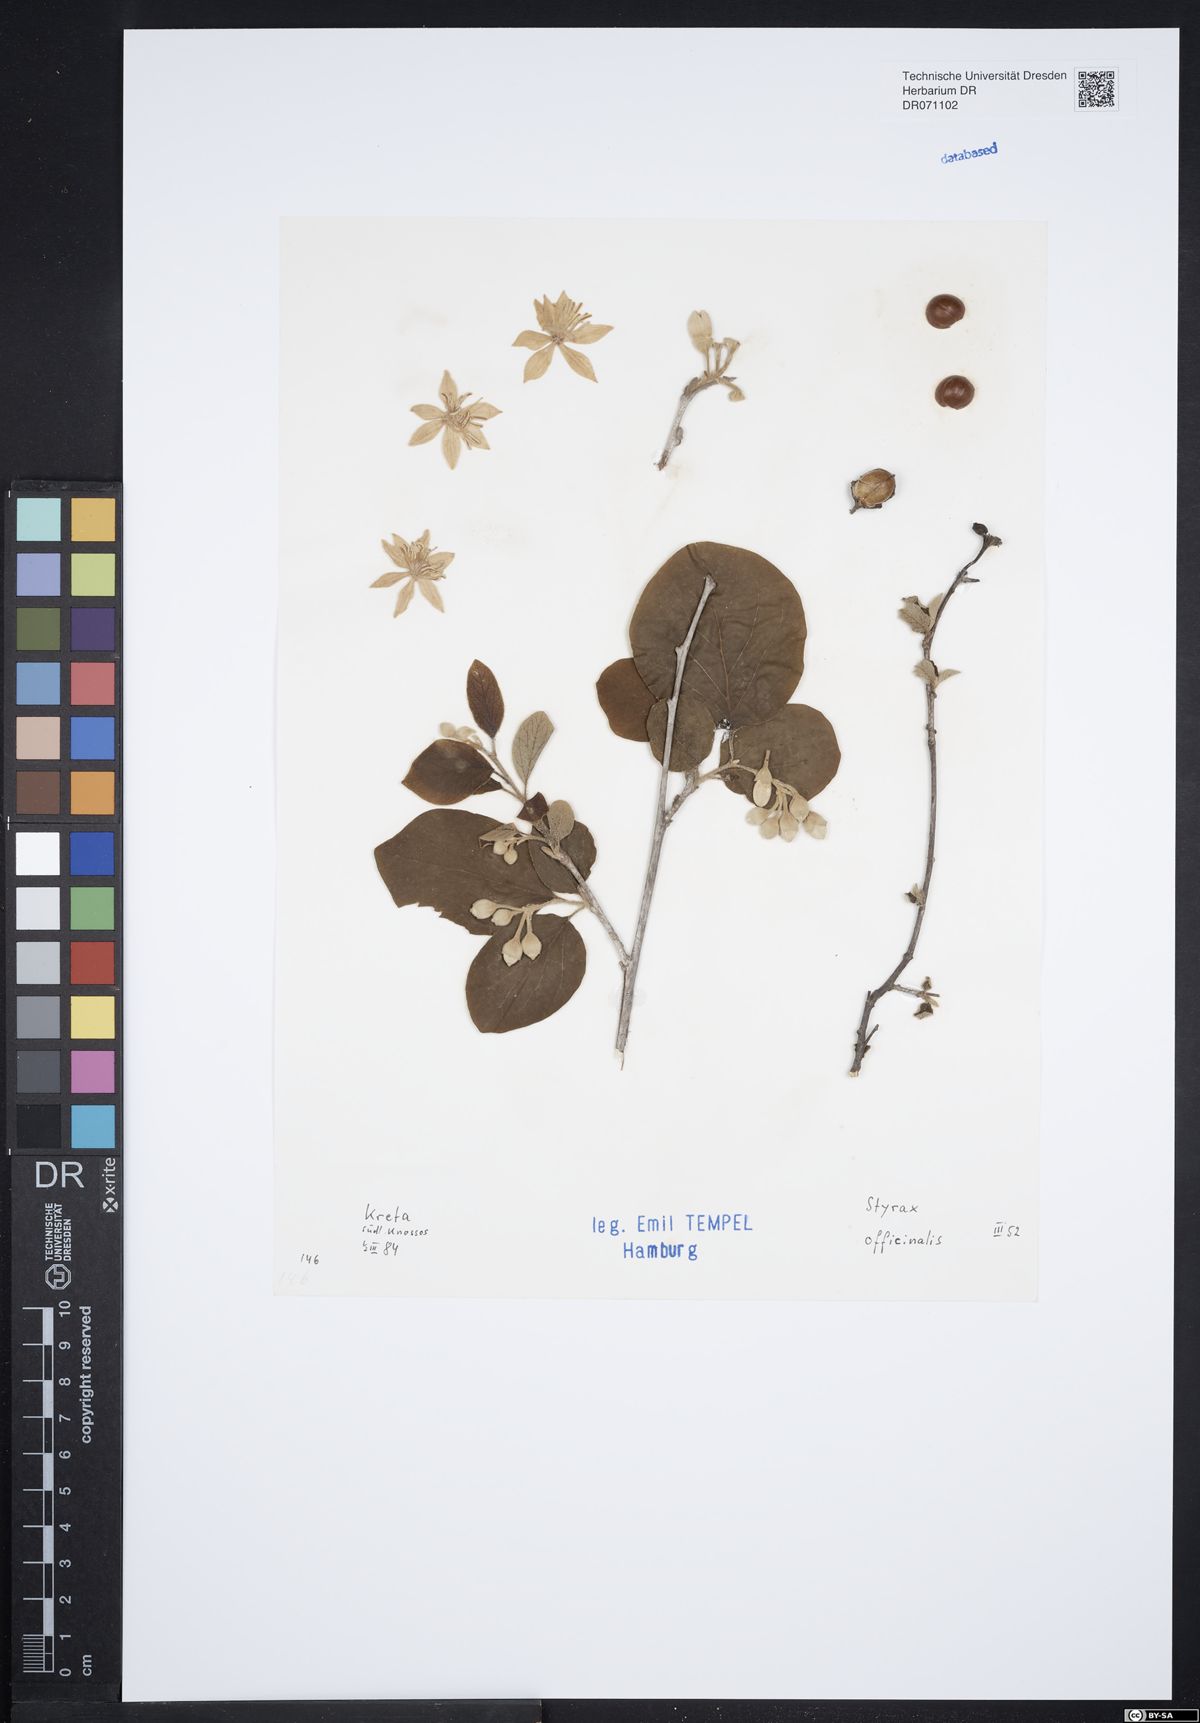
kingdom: Plantae
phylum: Tracheophyta
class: Magnoliopsida
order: Ericales
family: Styracaceae
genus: Styrax
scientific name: Styrax officinalis
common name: Storax
